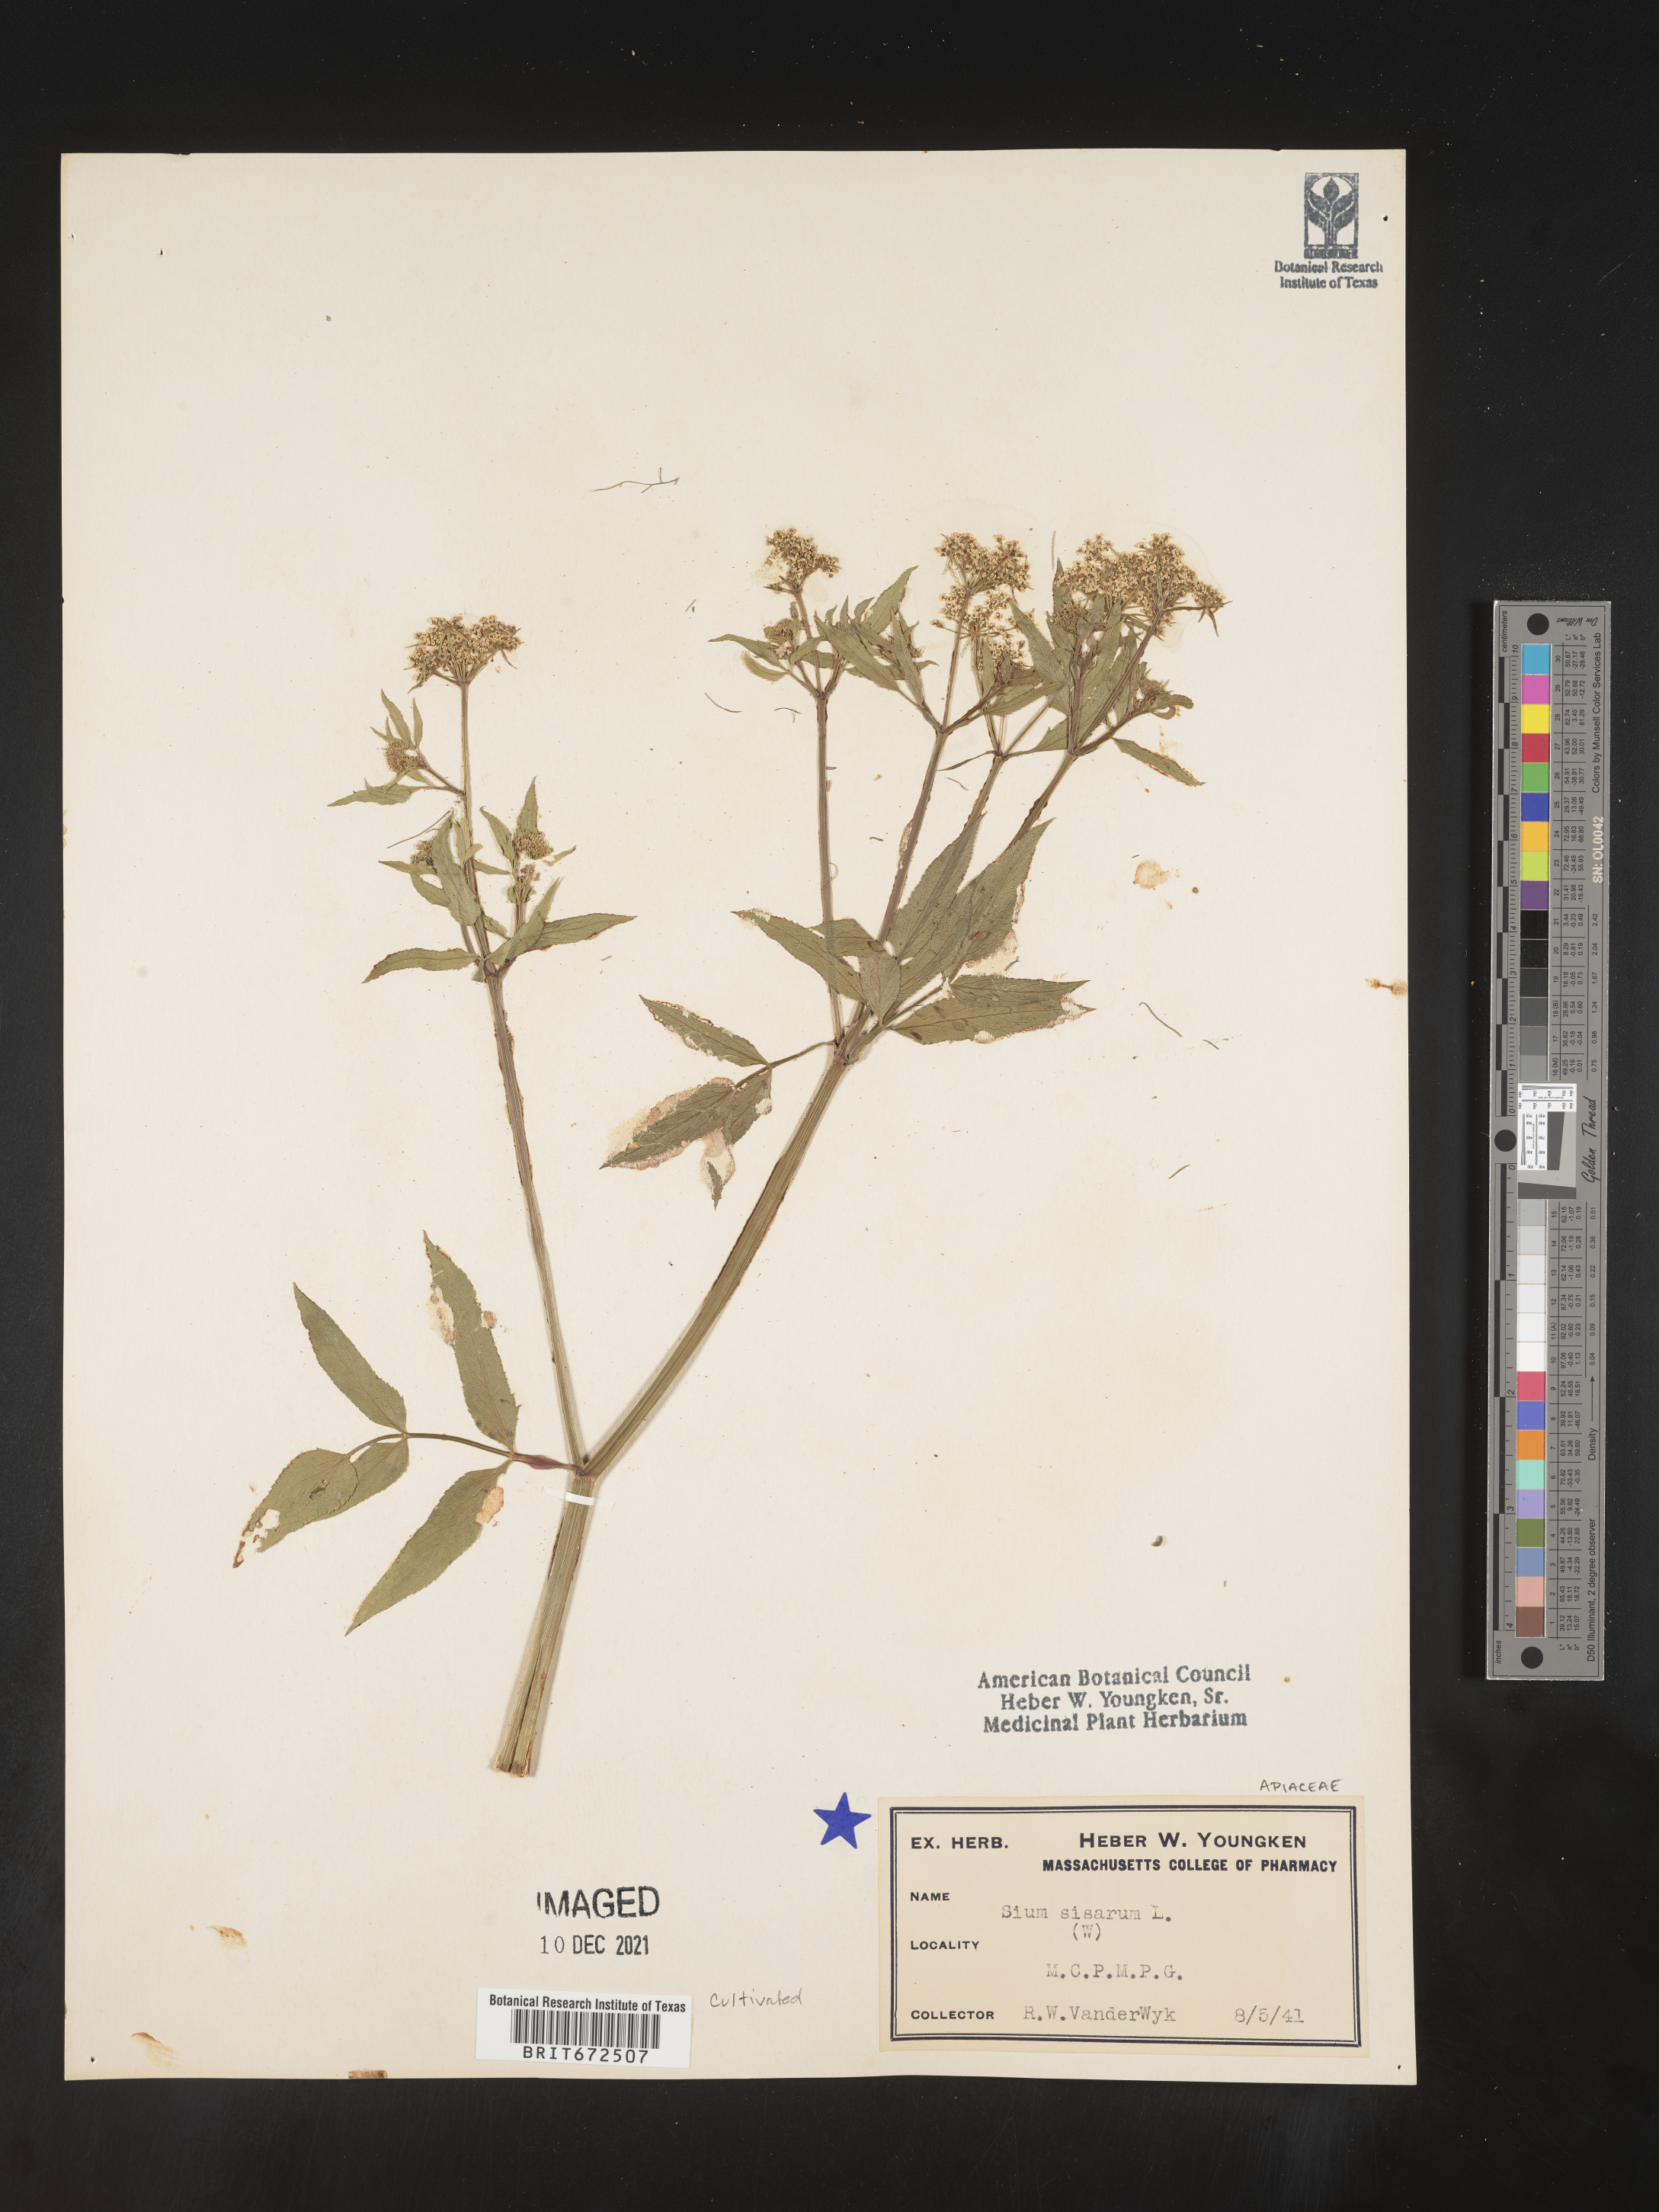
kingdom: Plantae
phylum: Tracheophyta
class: Magnoliopsida
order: Apiales
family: Apiaceae
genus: Sium
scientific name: Sium
